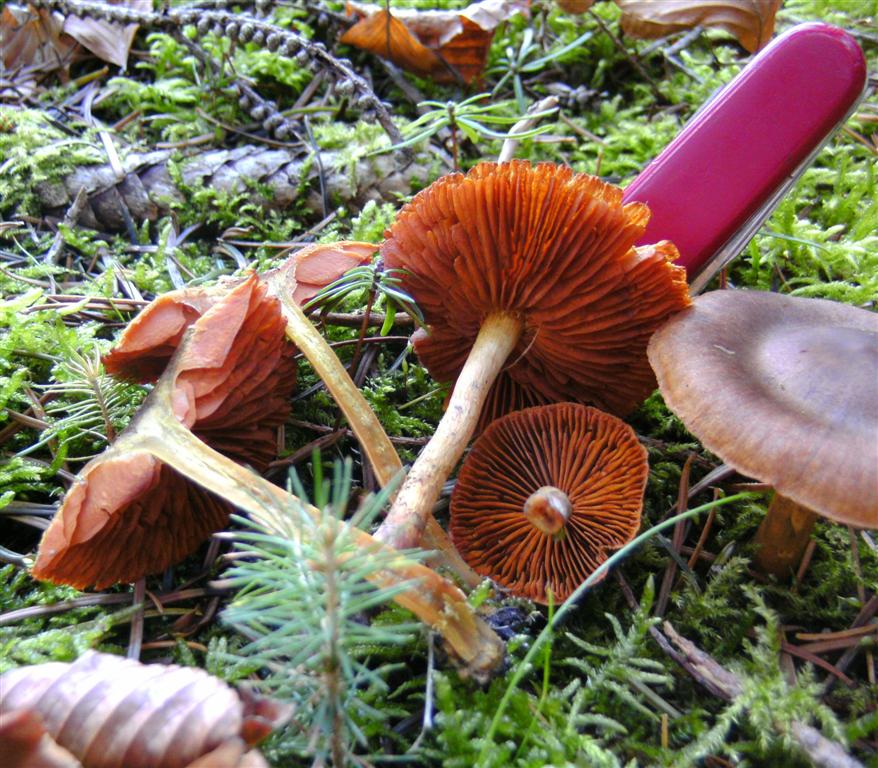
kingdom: Fungi
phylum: Basidiomycota
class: Agaricomycetes
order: Agaricales
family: Cortinariaceae
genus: Cortinarius
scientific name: Cortinarius cinnamomeus
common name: kanel-slørhat
